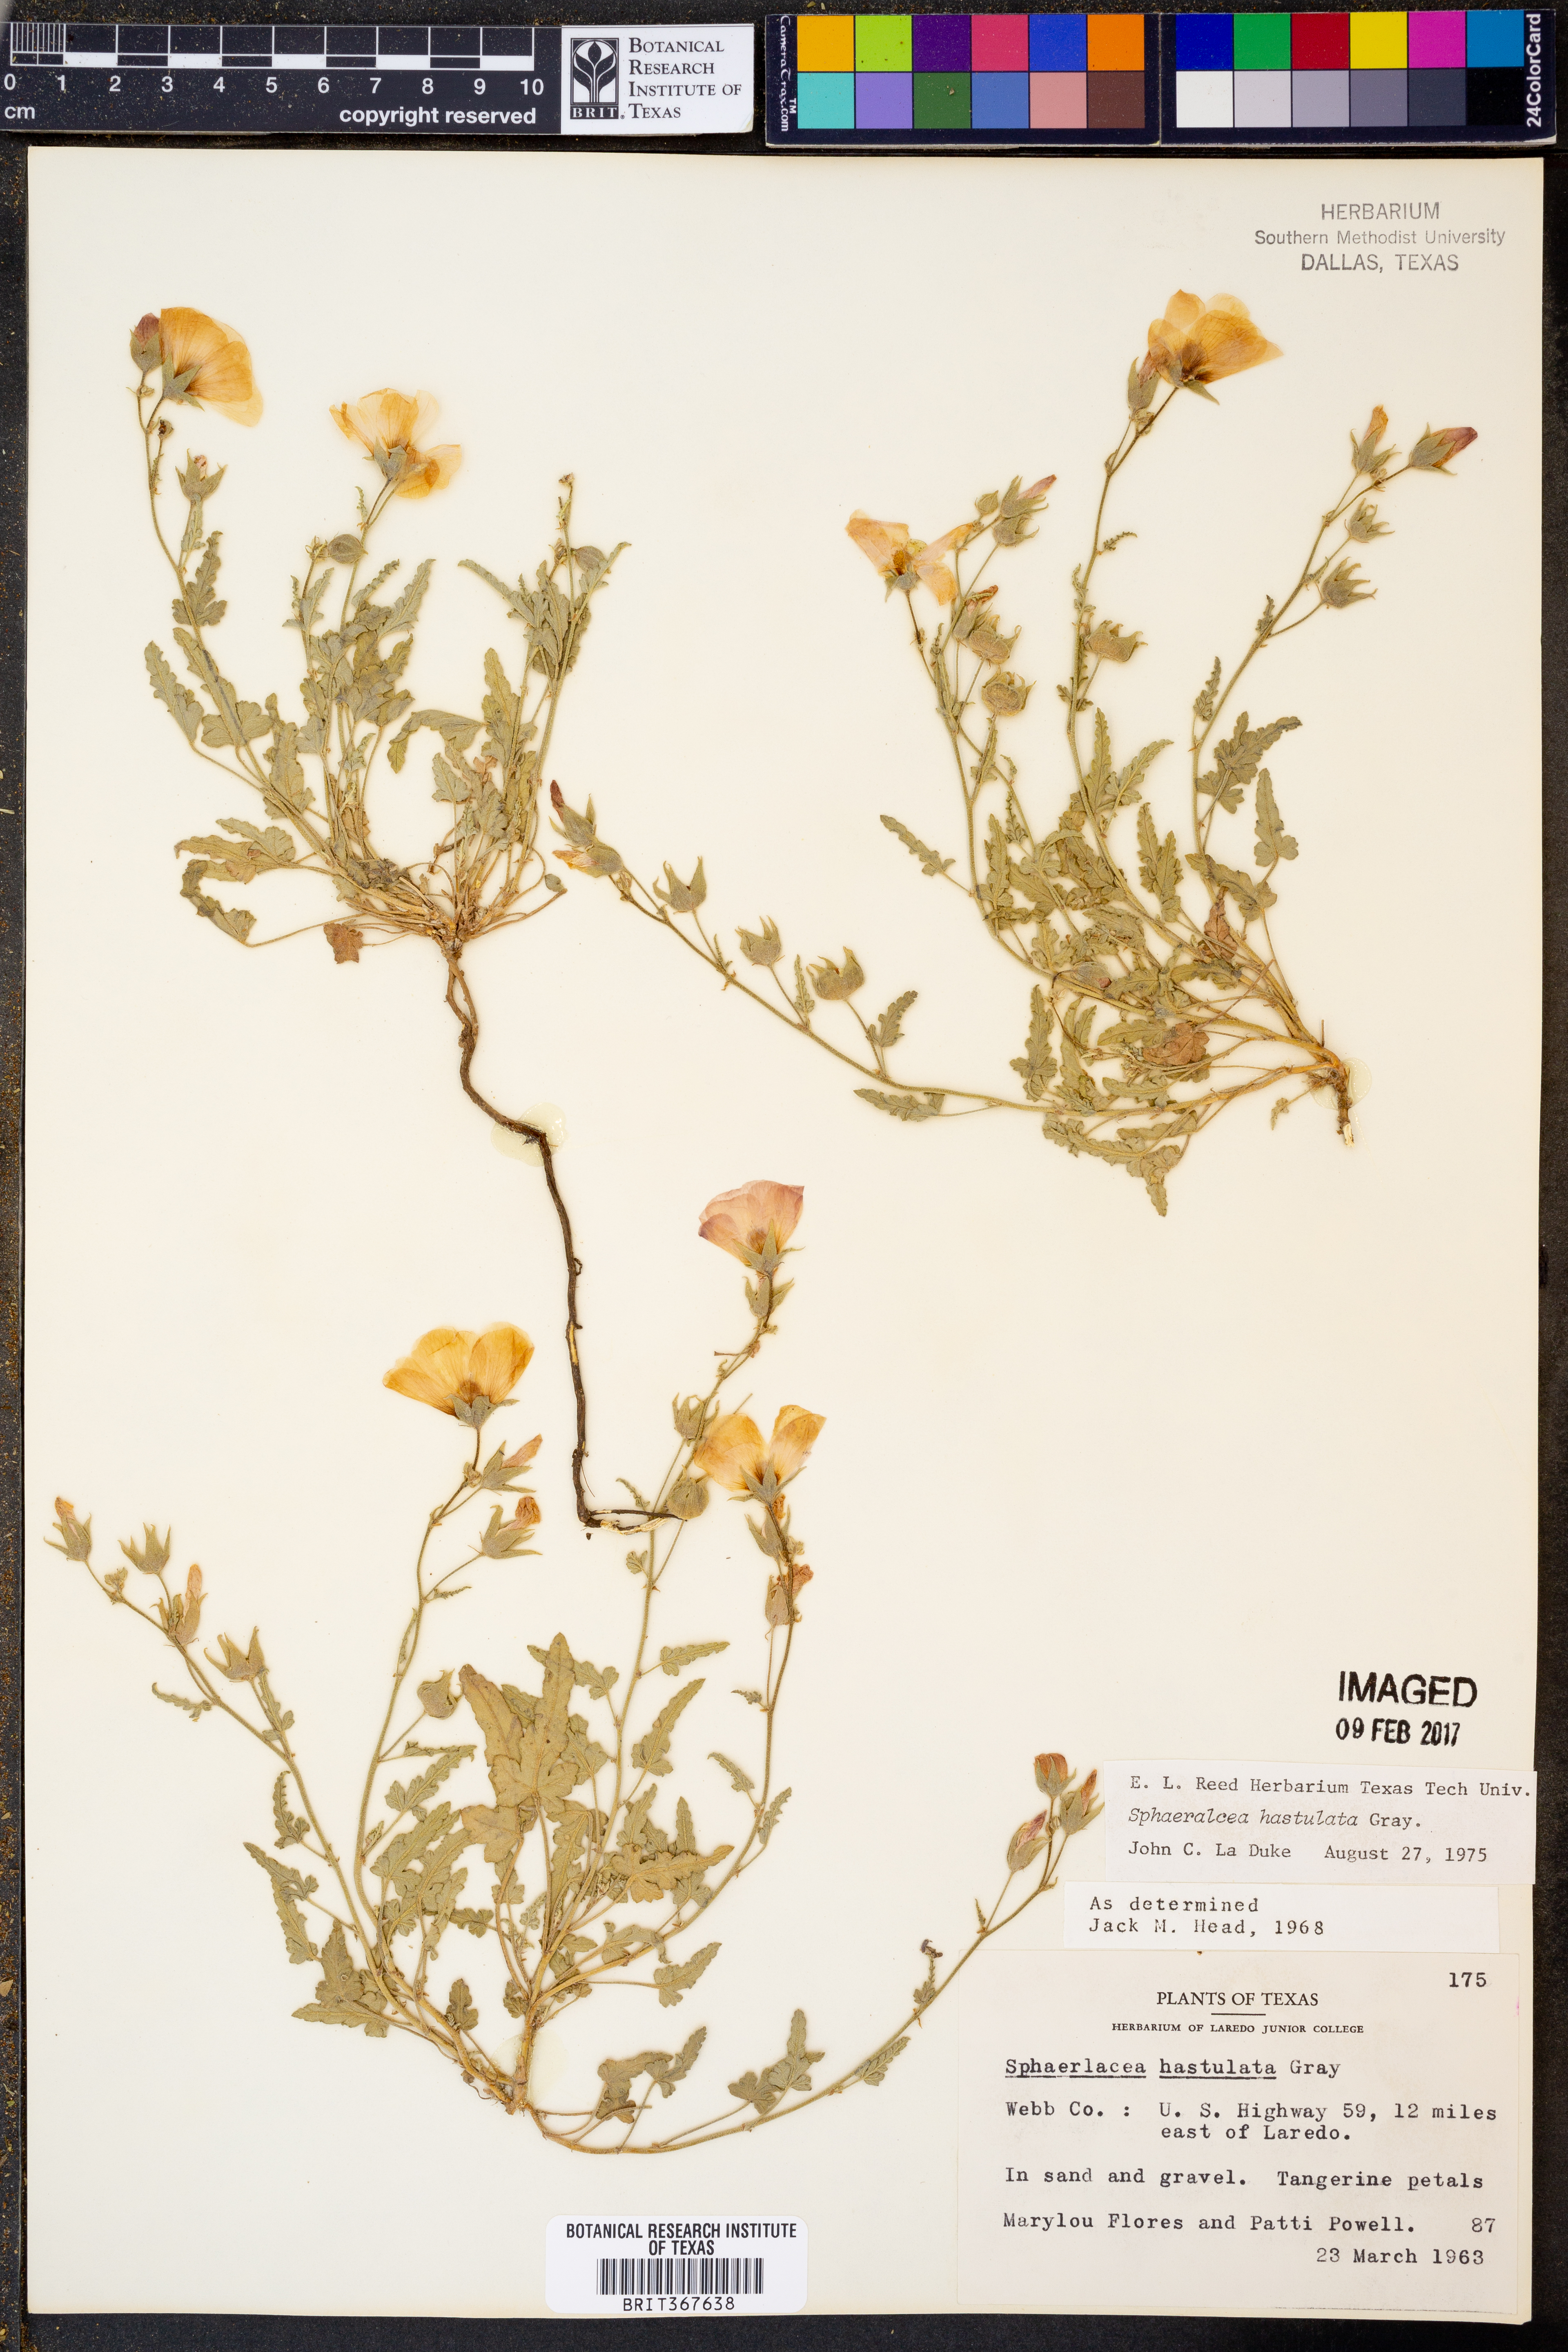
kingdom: Plantae
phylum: Tracheophyta
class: Magnoliopsida
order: Malvales
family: Malvaceae
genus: Sphaeralcea
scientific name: Sphaeralcea hastulata
